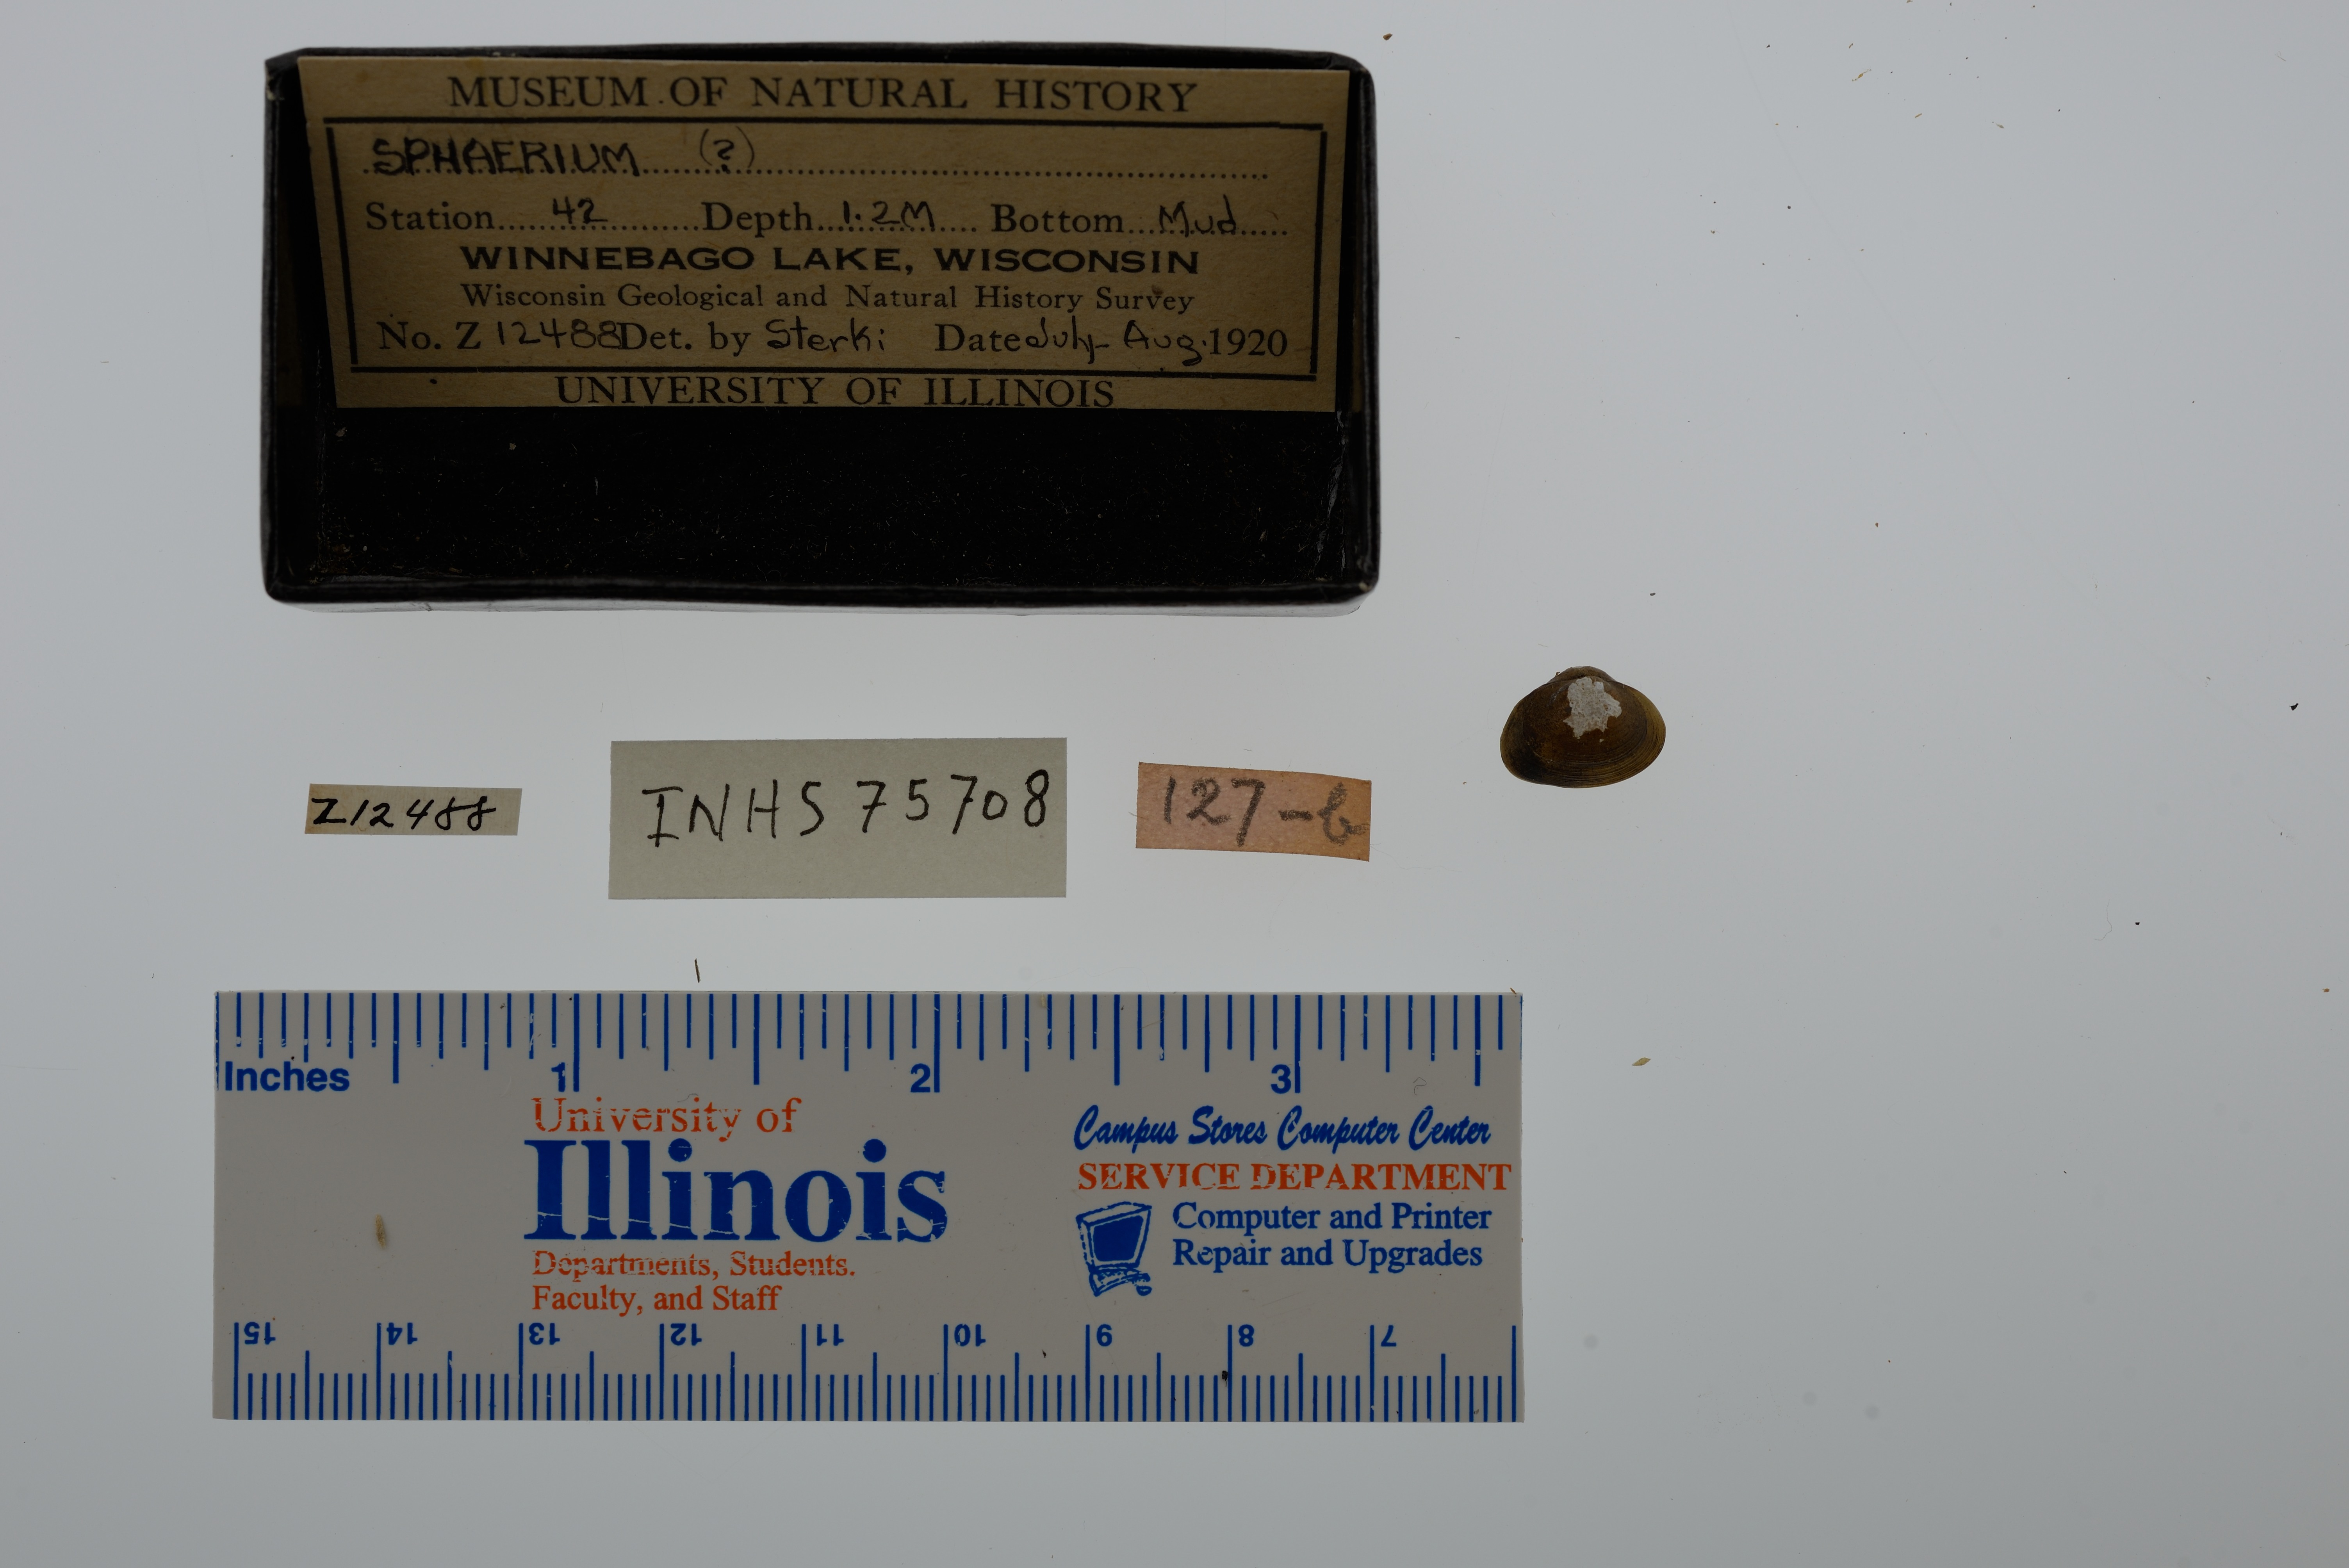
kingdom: Animalia
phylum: Mollusca
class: Bivalvia
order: Sphaeriida
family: Sphaeriidae
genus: Sphaerium
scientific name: Sphaerium
